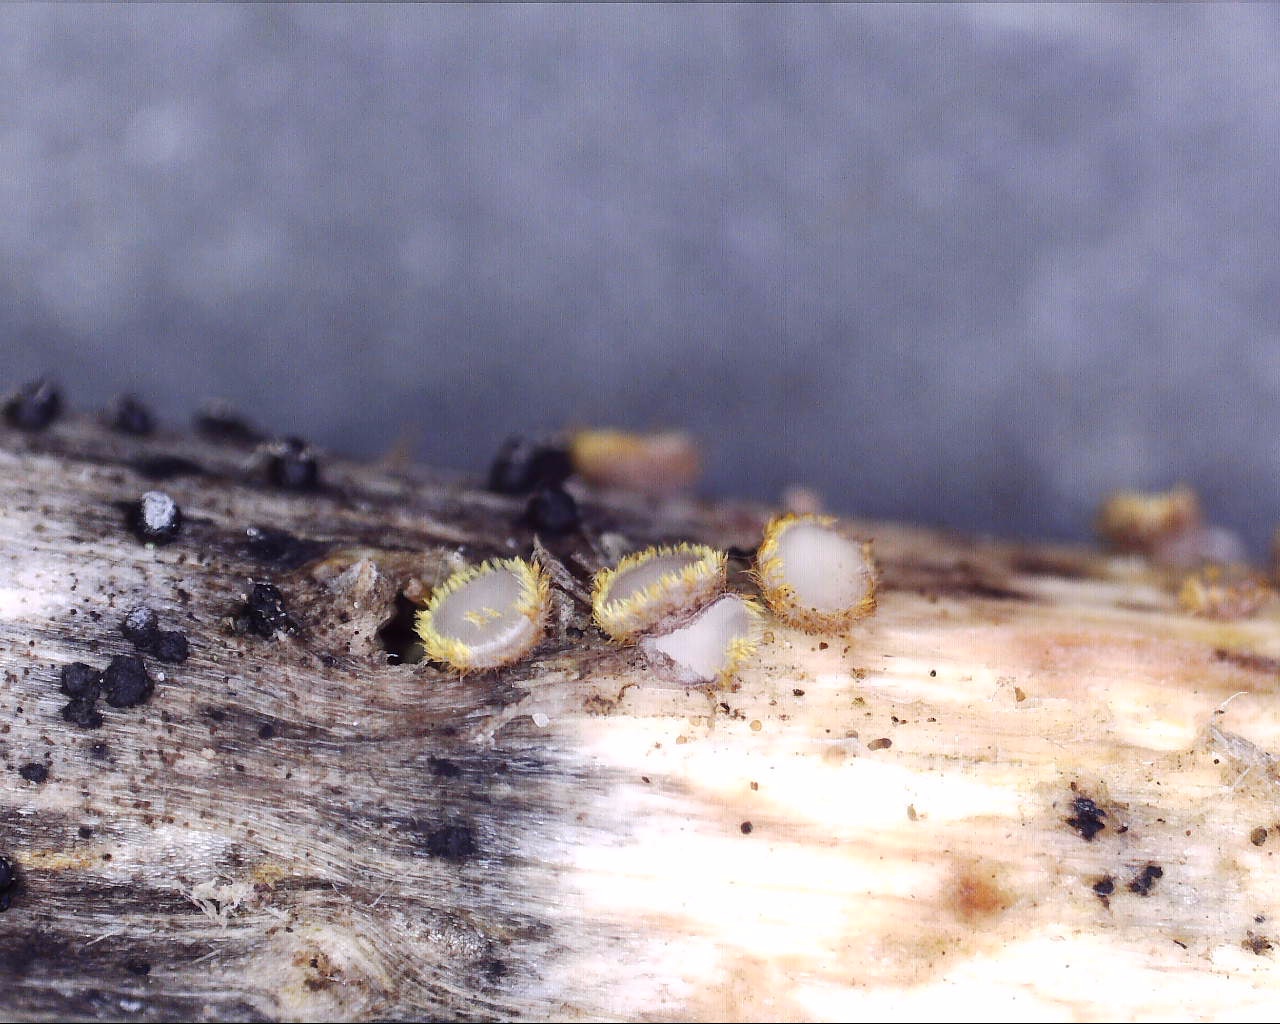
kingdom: Fungi
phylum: Ascomycota
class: Leotiomycetes
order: Helotiales
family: Lachnaceae
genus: Trichopeziza
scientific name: Trichopeziza
